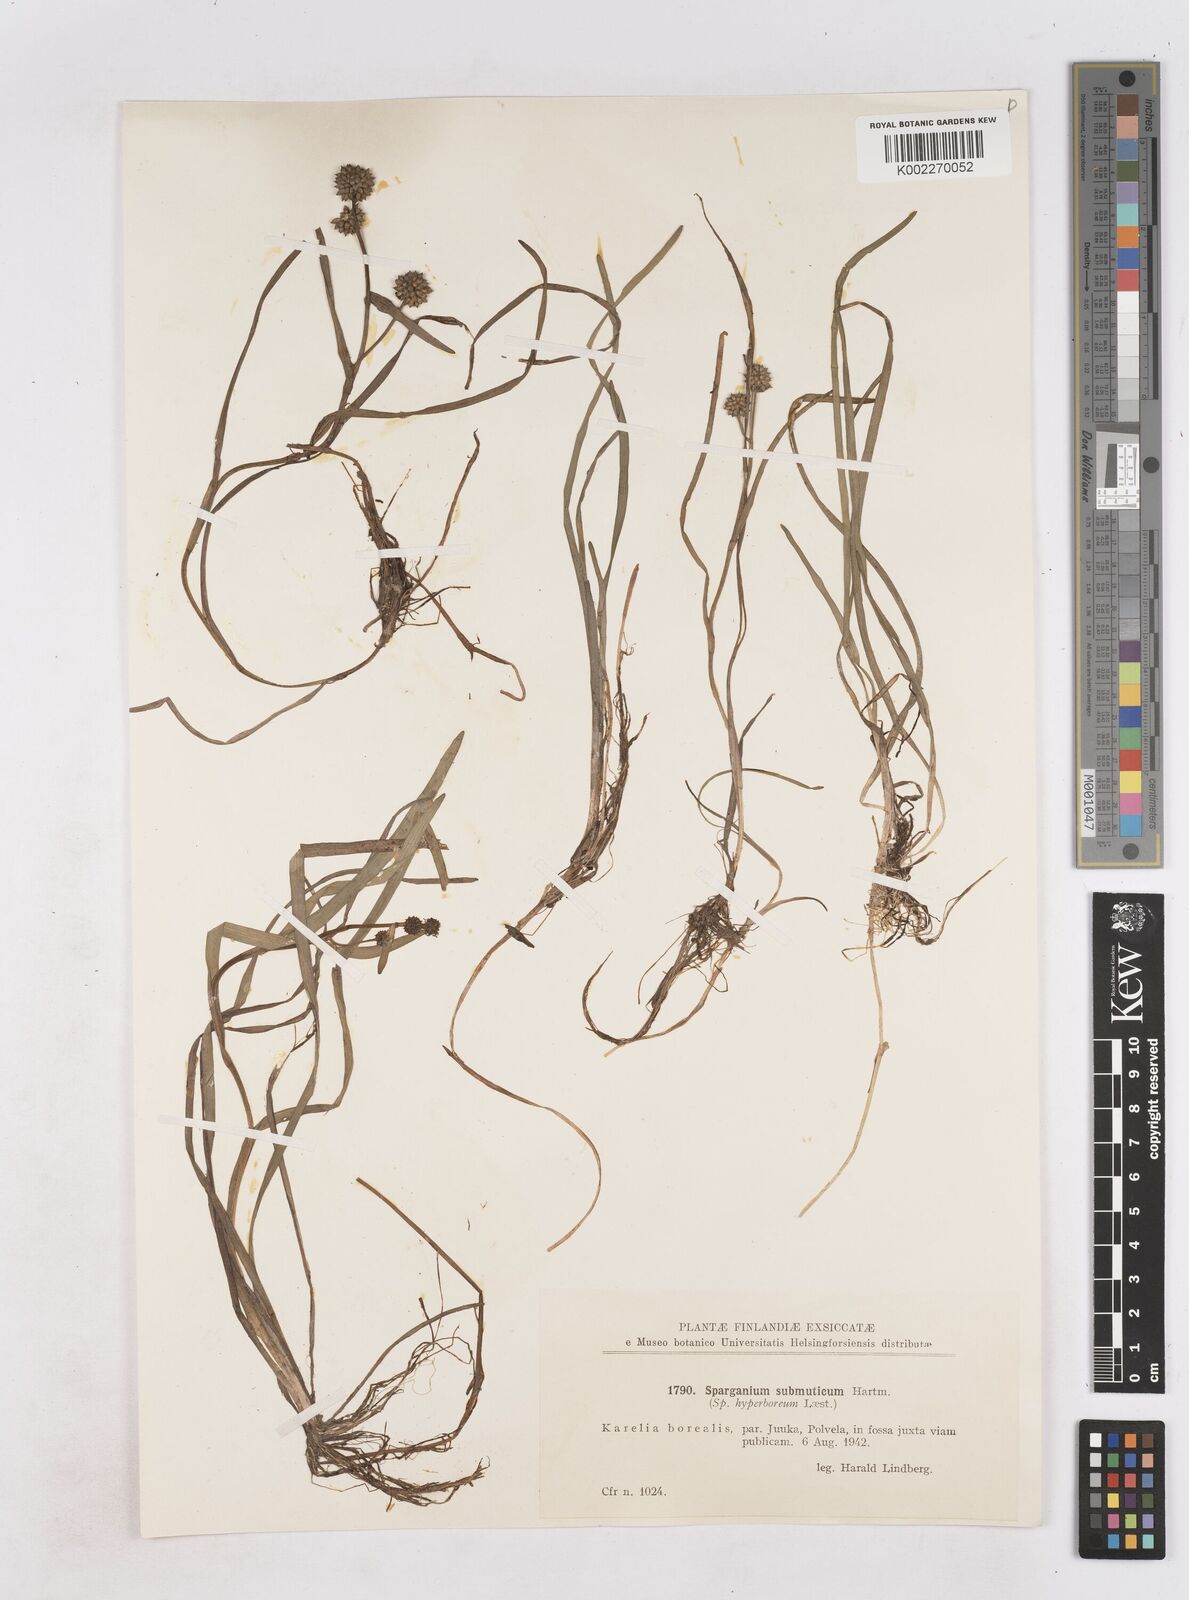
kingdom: Plantae
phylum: Tracheophyta
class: Liliopsida
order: Poales
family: Typhaceae
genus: Sparganium
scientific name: Sparganium hyperboreum
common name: Arctic burreed
